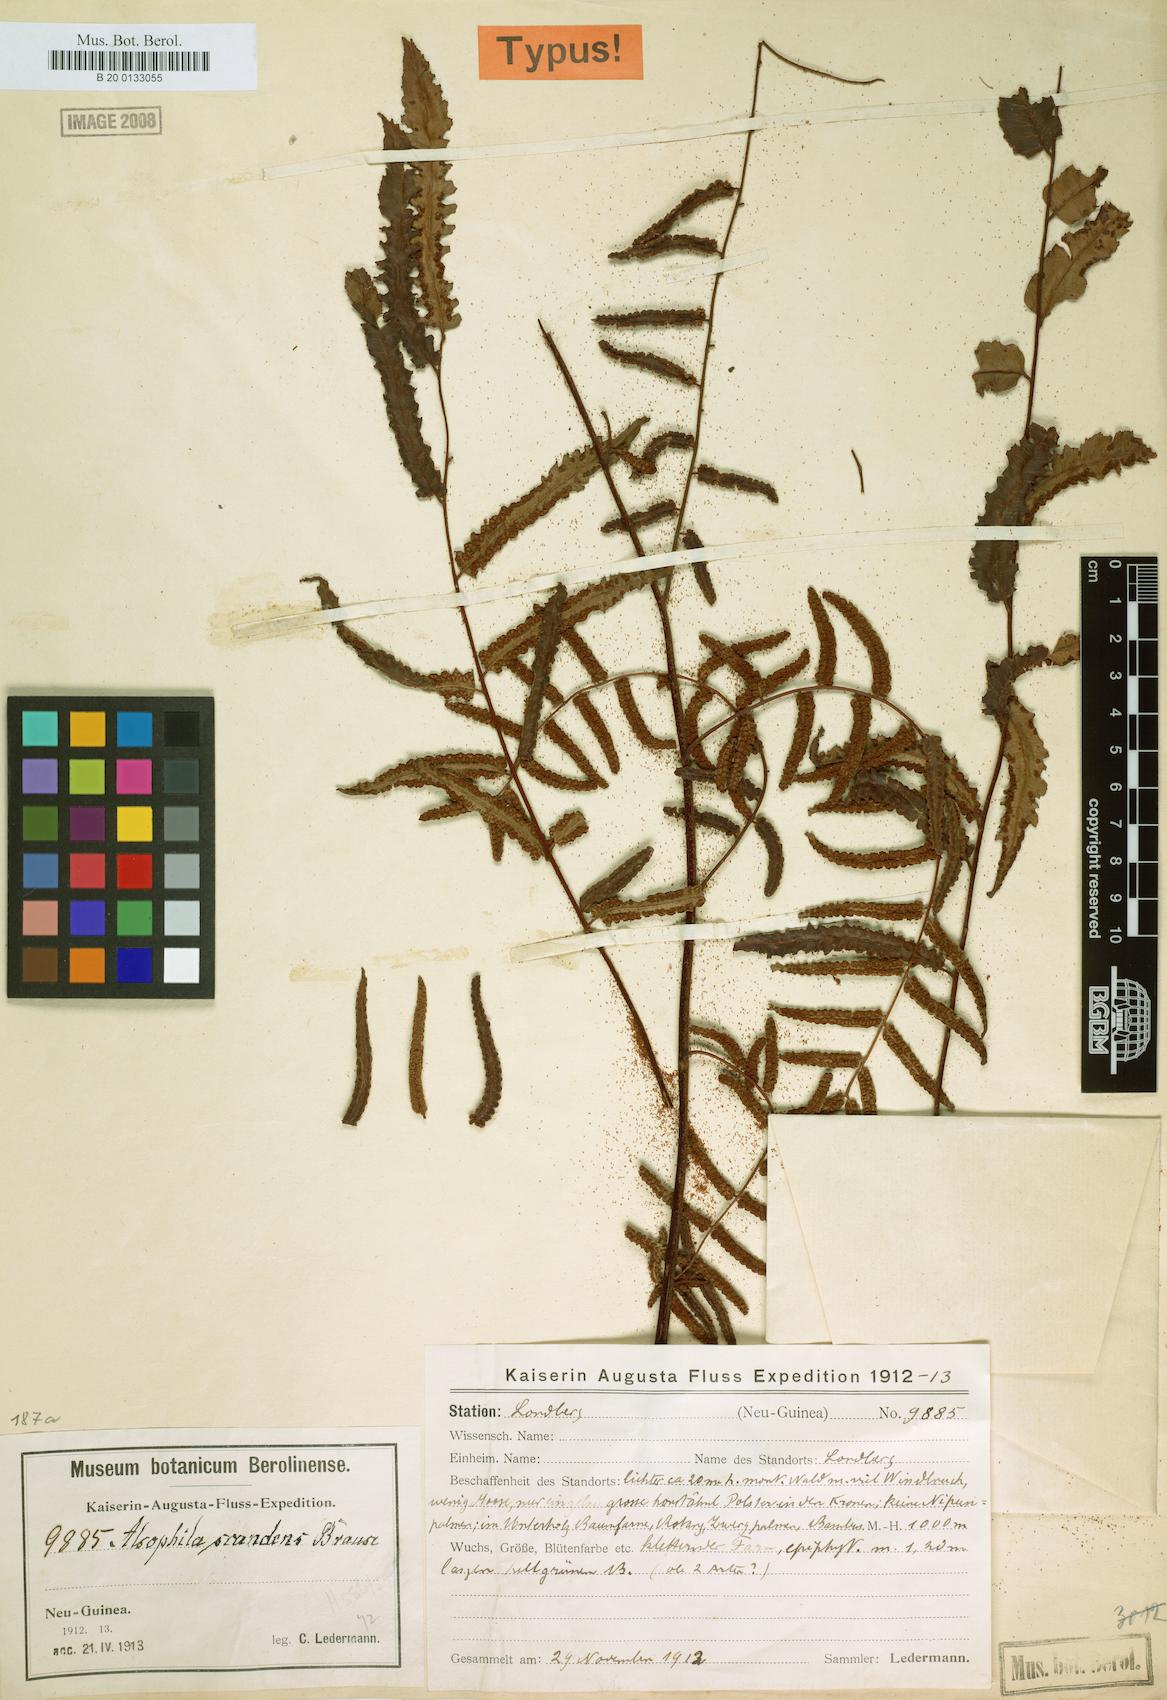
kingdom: Plantae
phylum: Tracheophyta
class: Polypodiopsida
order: Cyatheales
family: Cyatheaceae
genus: Gymnosphaera
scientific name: Gymnosphaera scandens
